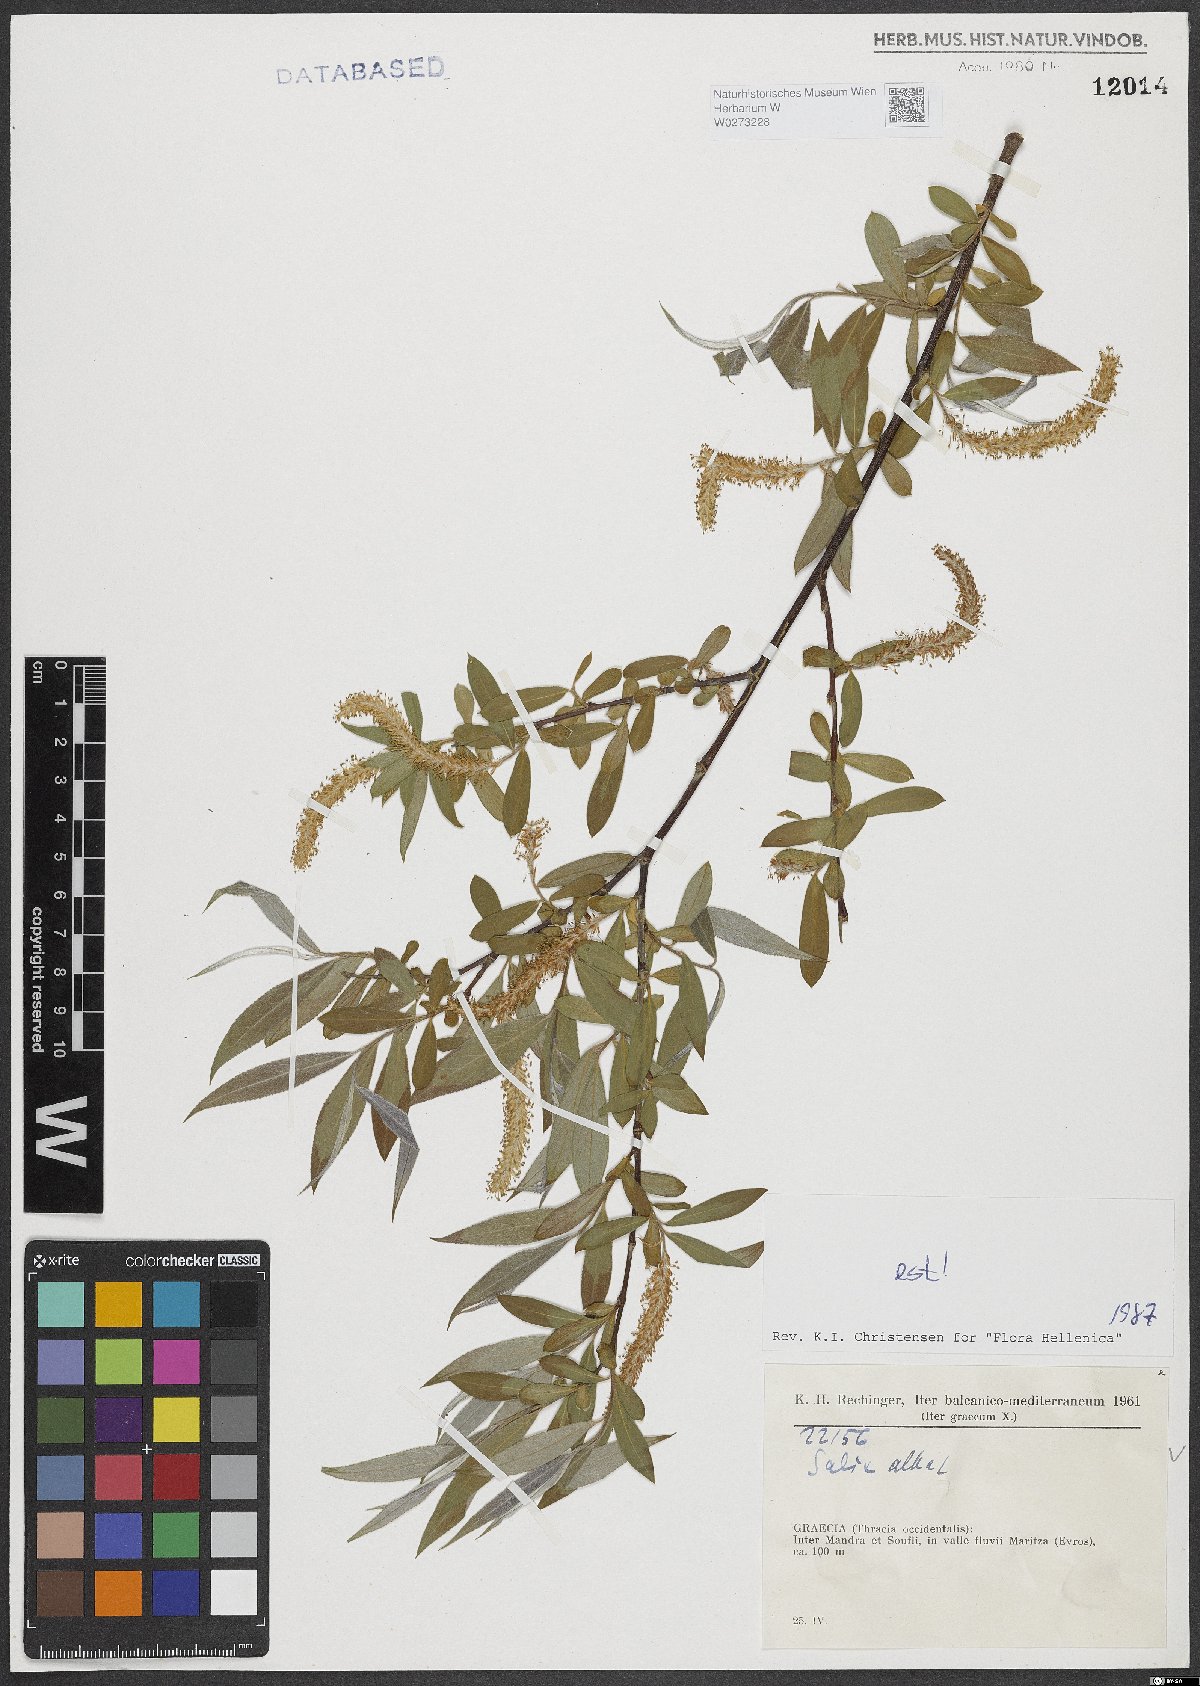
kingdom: Plantae
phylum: Tracheophyta
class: Magnoliopsida
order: Malpighiales
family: Salicaceae
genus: Salix
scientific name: Salix alba
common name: White willow
